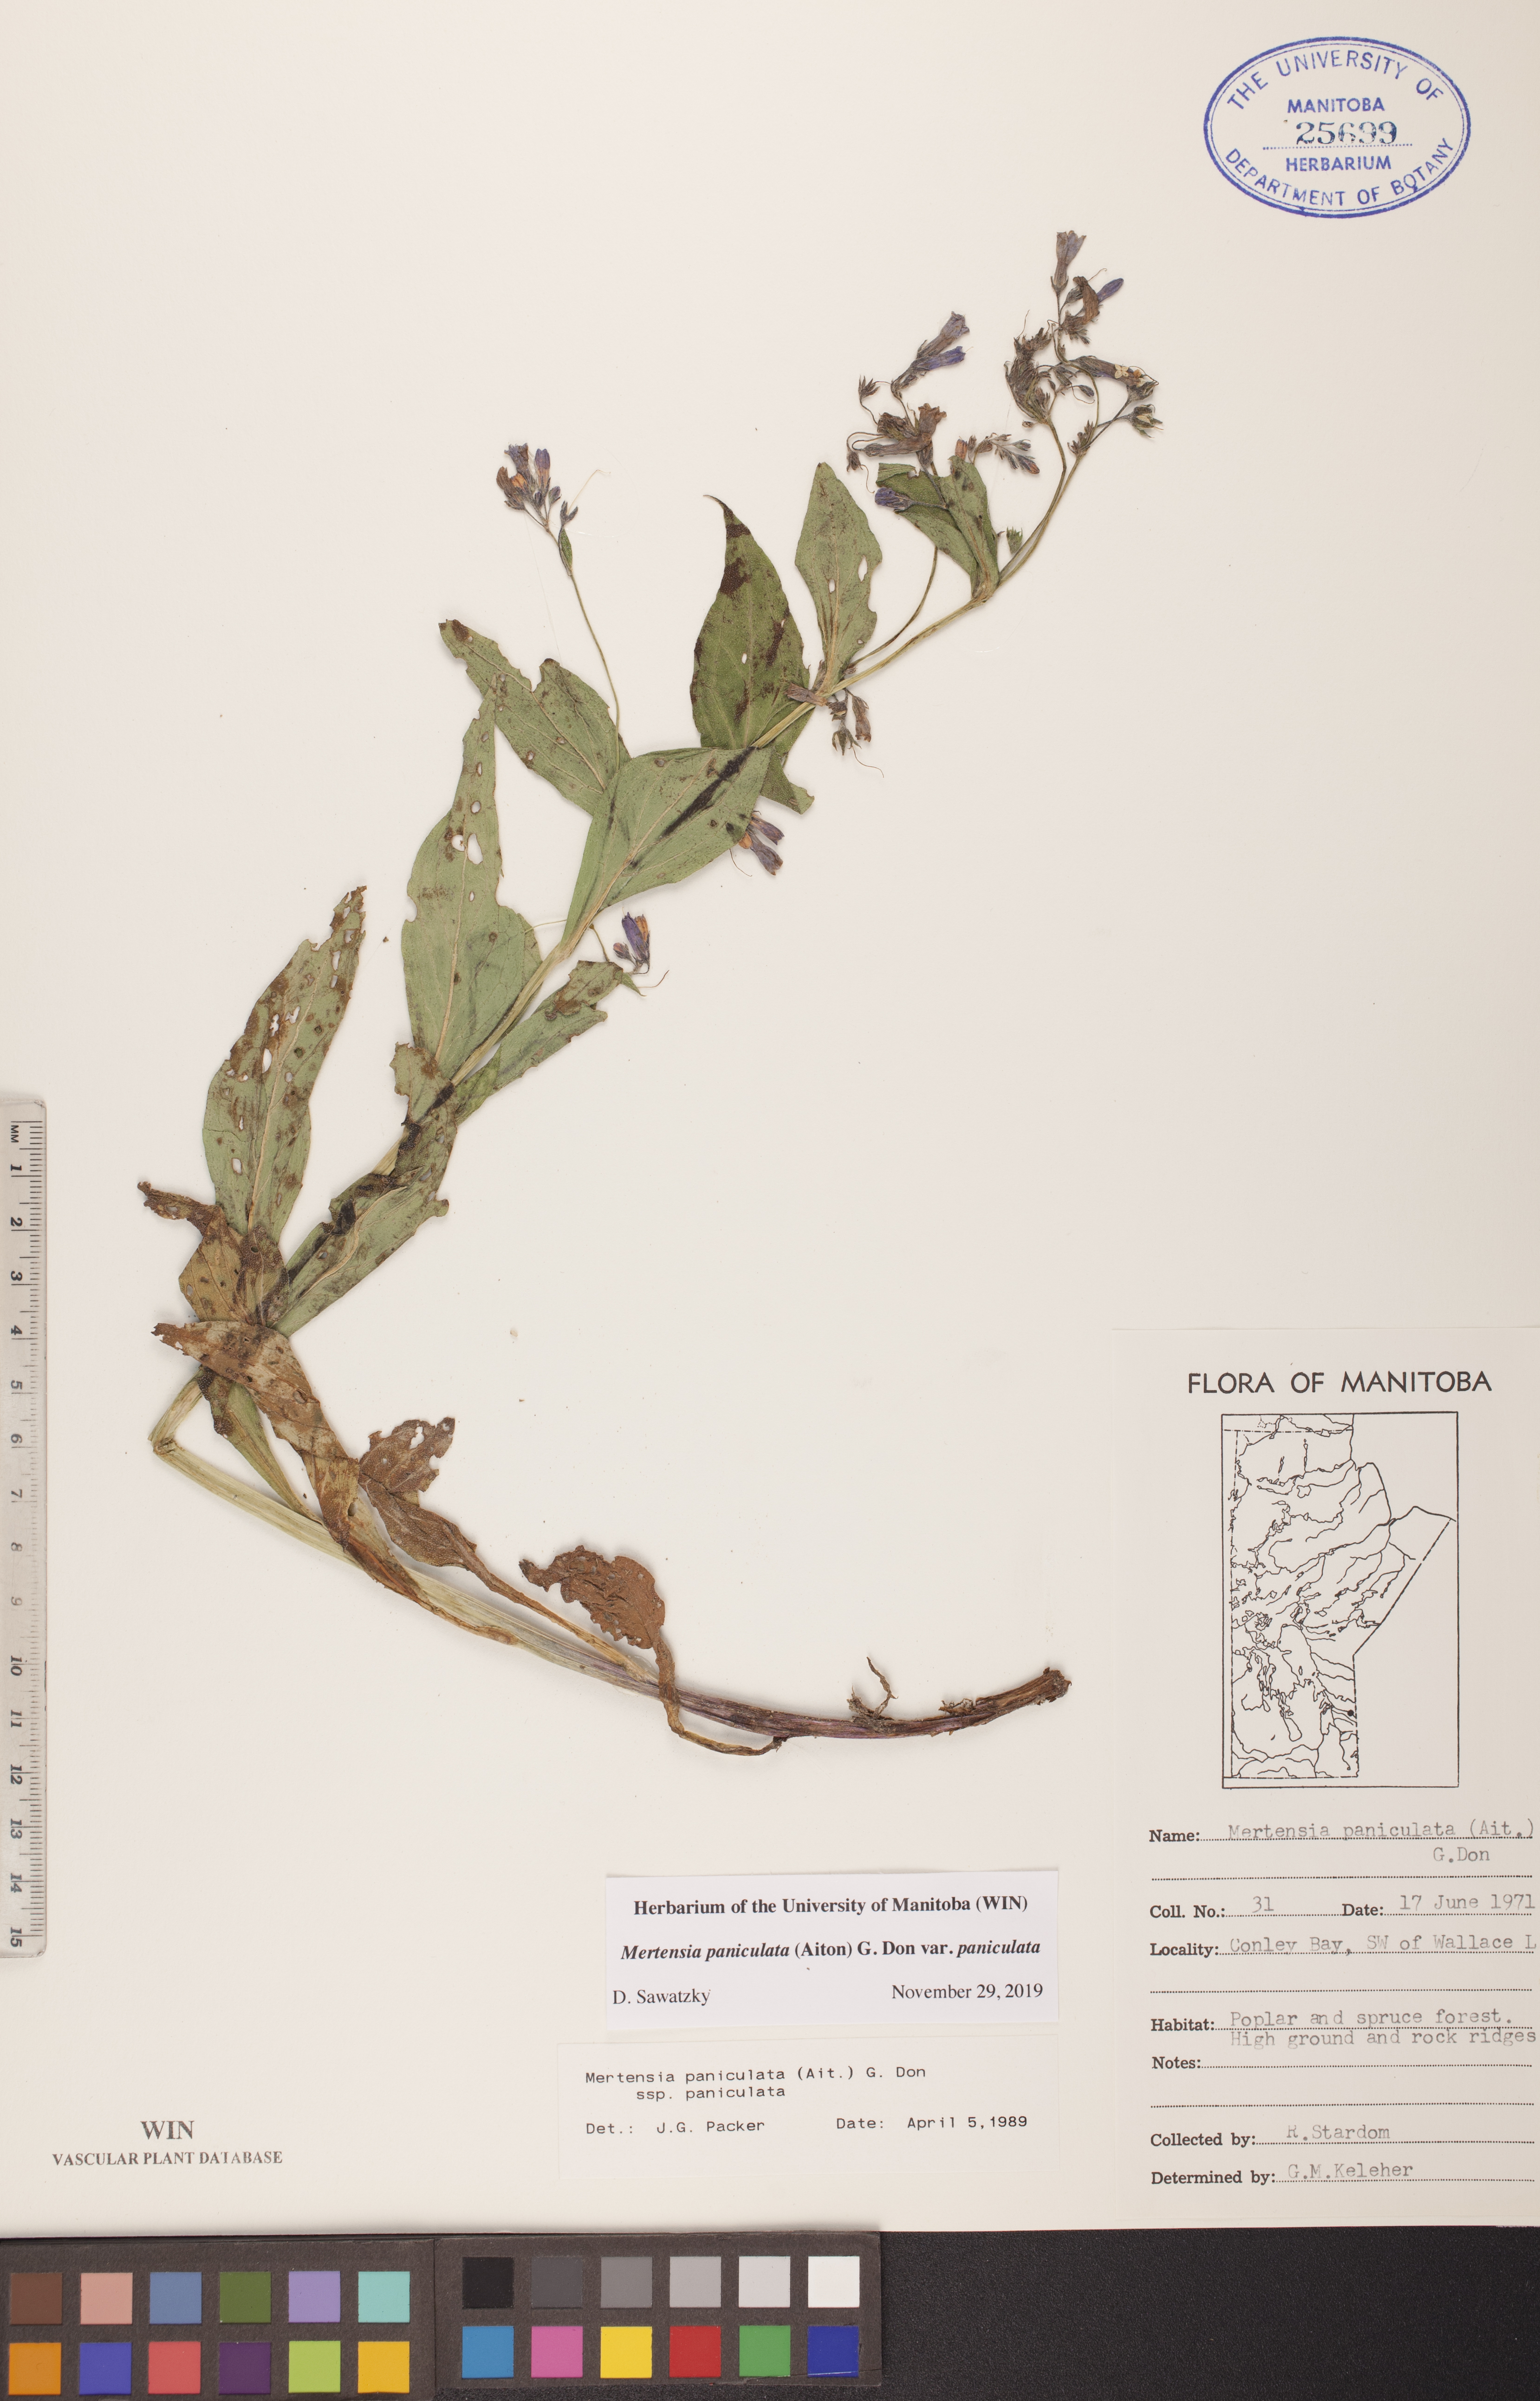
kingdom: Plantae
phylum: Tracheophyta
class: Magnoliopsida
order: Boraginales
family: Boraginaceae
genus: Mertensia
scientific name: Mertensia paniculata
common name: Panicled bluebells
